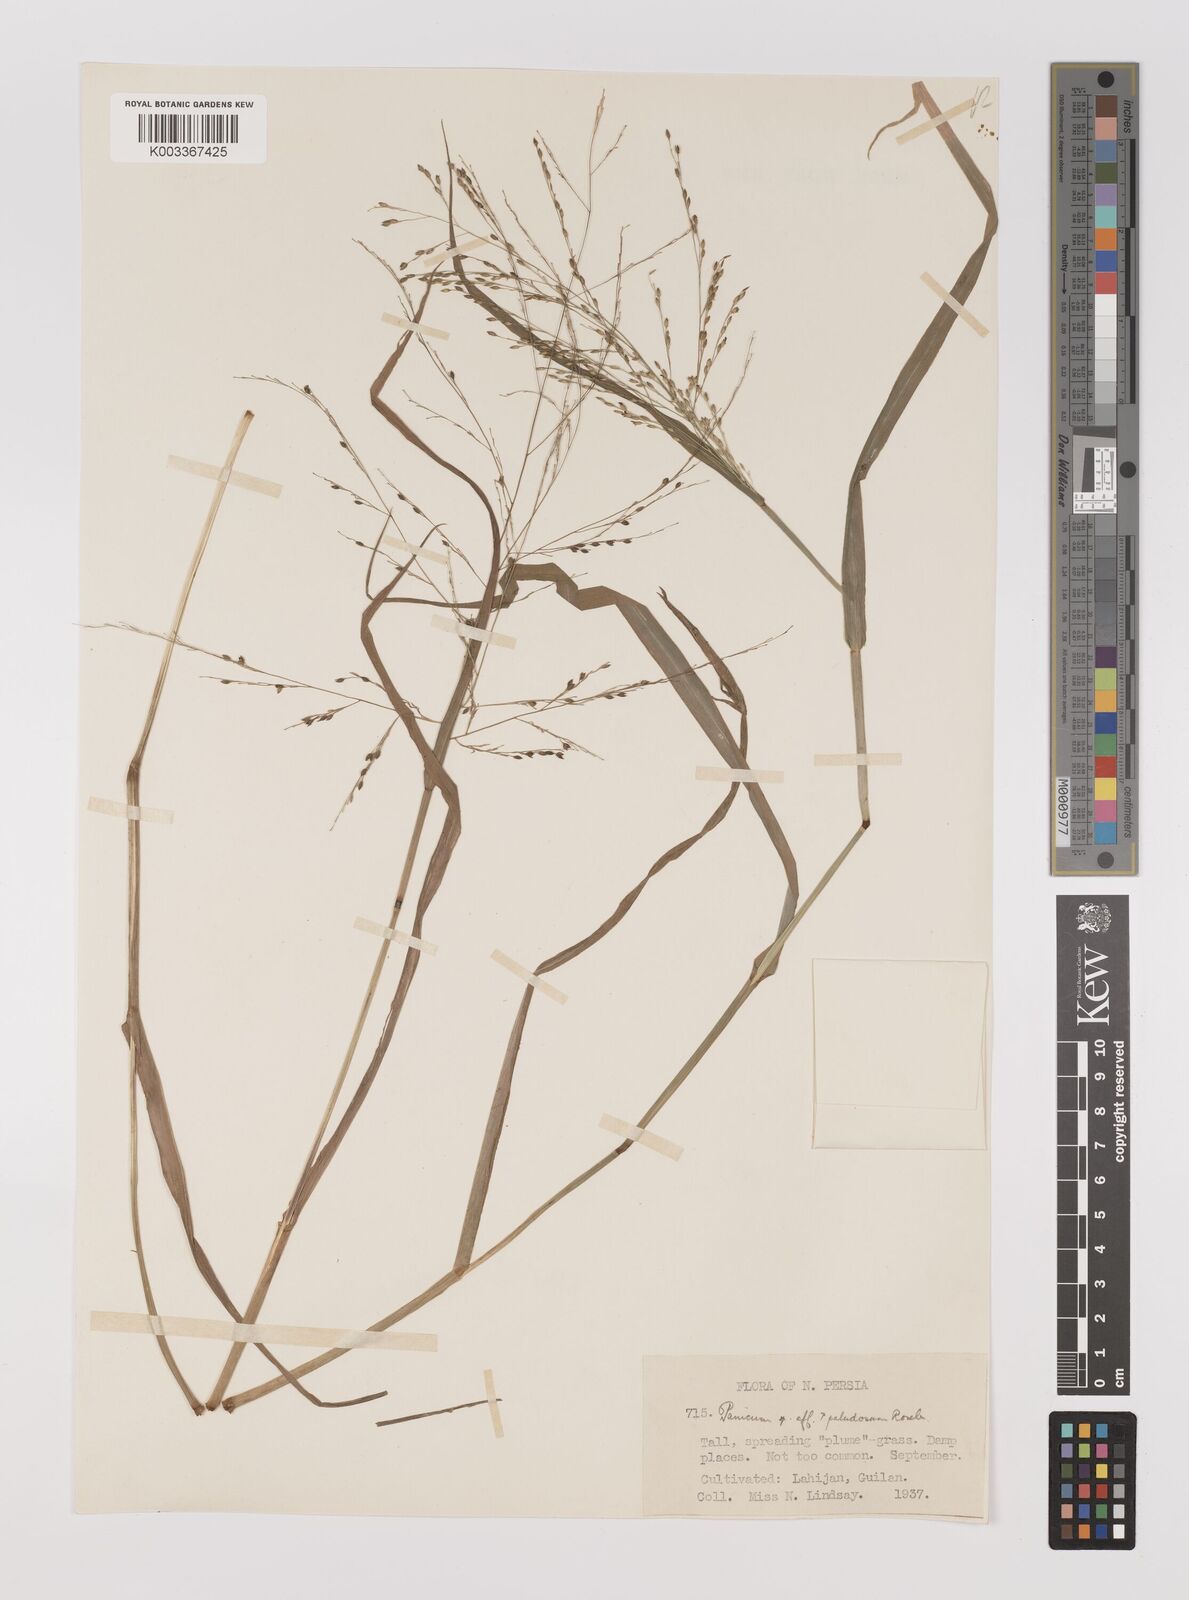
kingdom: Plantae
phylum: Tracheophyta
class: Liliopsida
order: Poales
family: Poaceae
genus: Panicum
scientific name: Panicum
